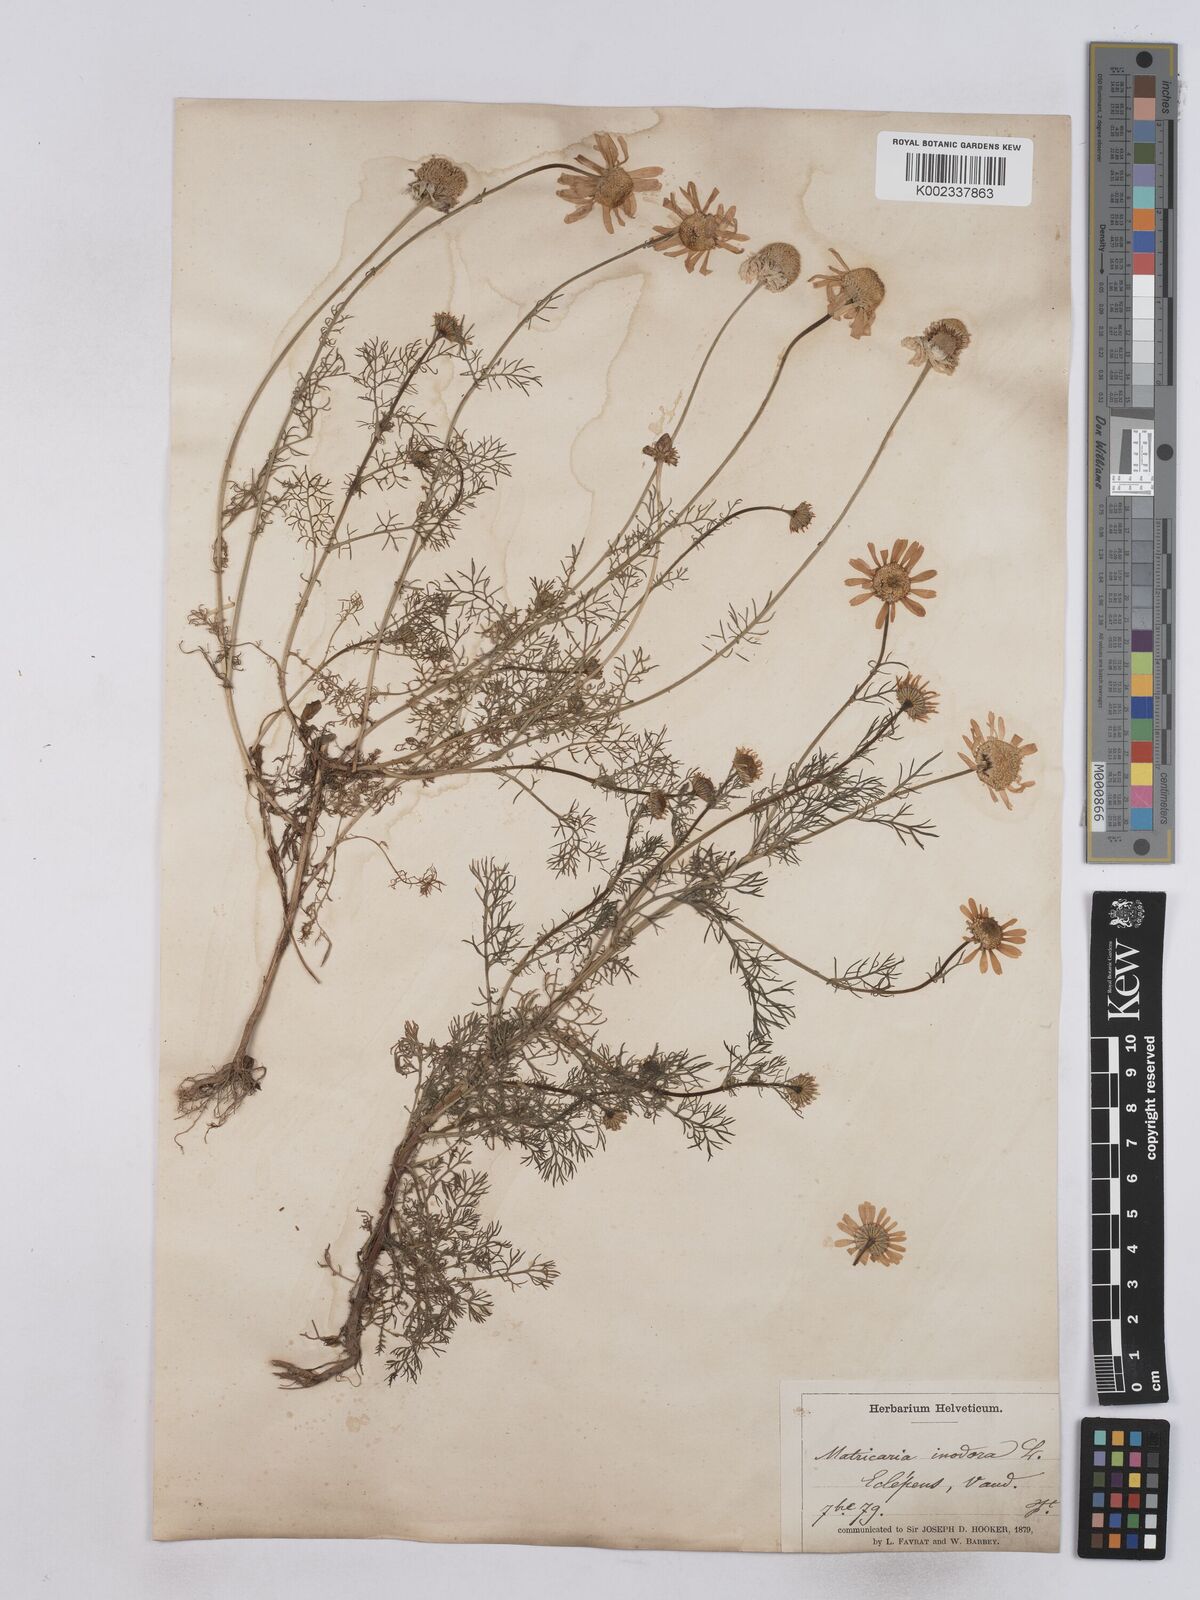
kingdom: Plantae
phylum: Tracheophyta
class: Magnoliopsida
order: Asterales
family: Asteraceae
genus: Matricaria
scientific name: Matricaria chamomilla
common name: Scented mayweed
